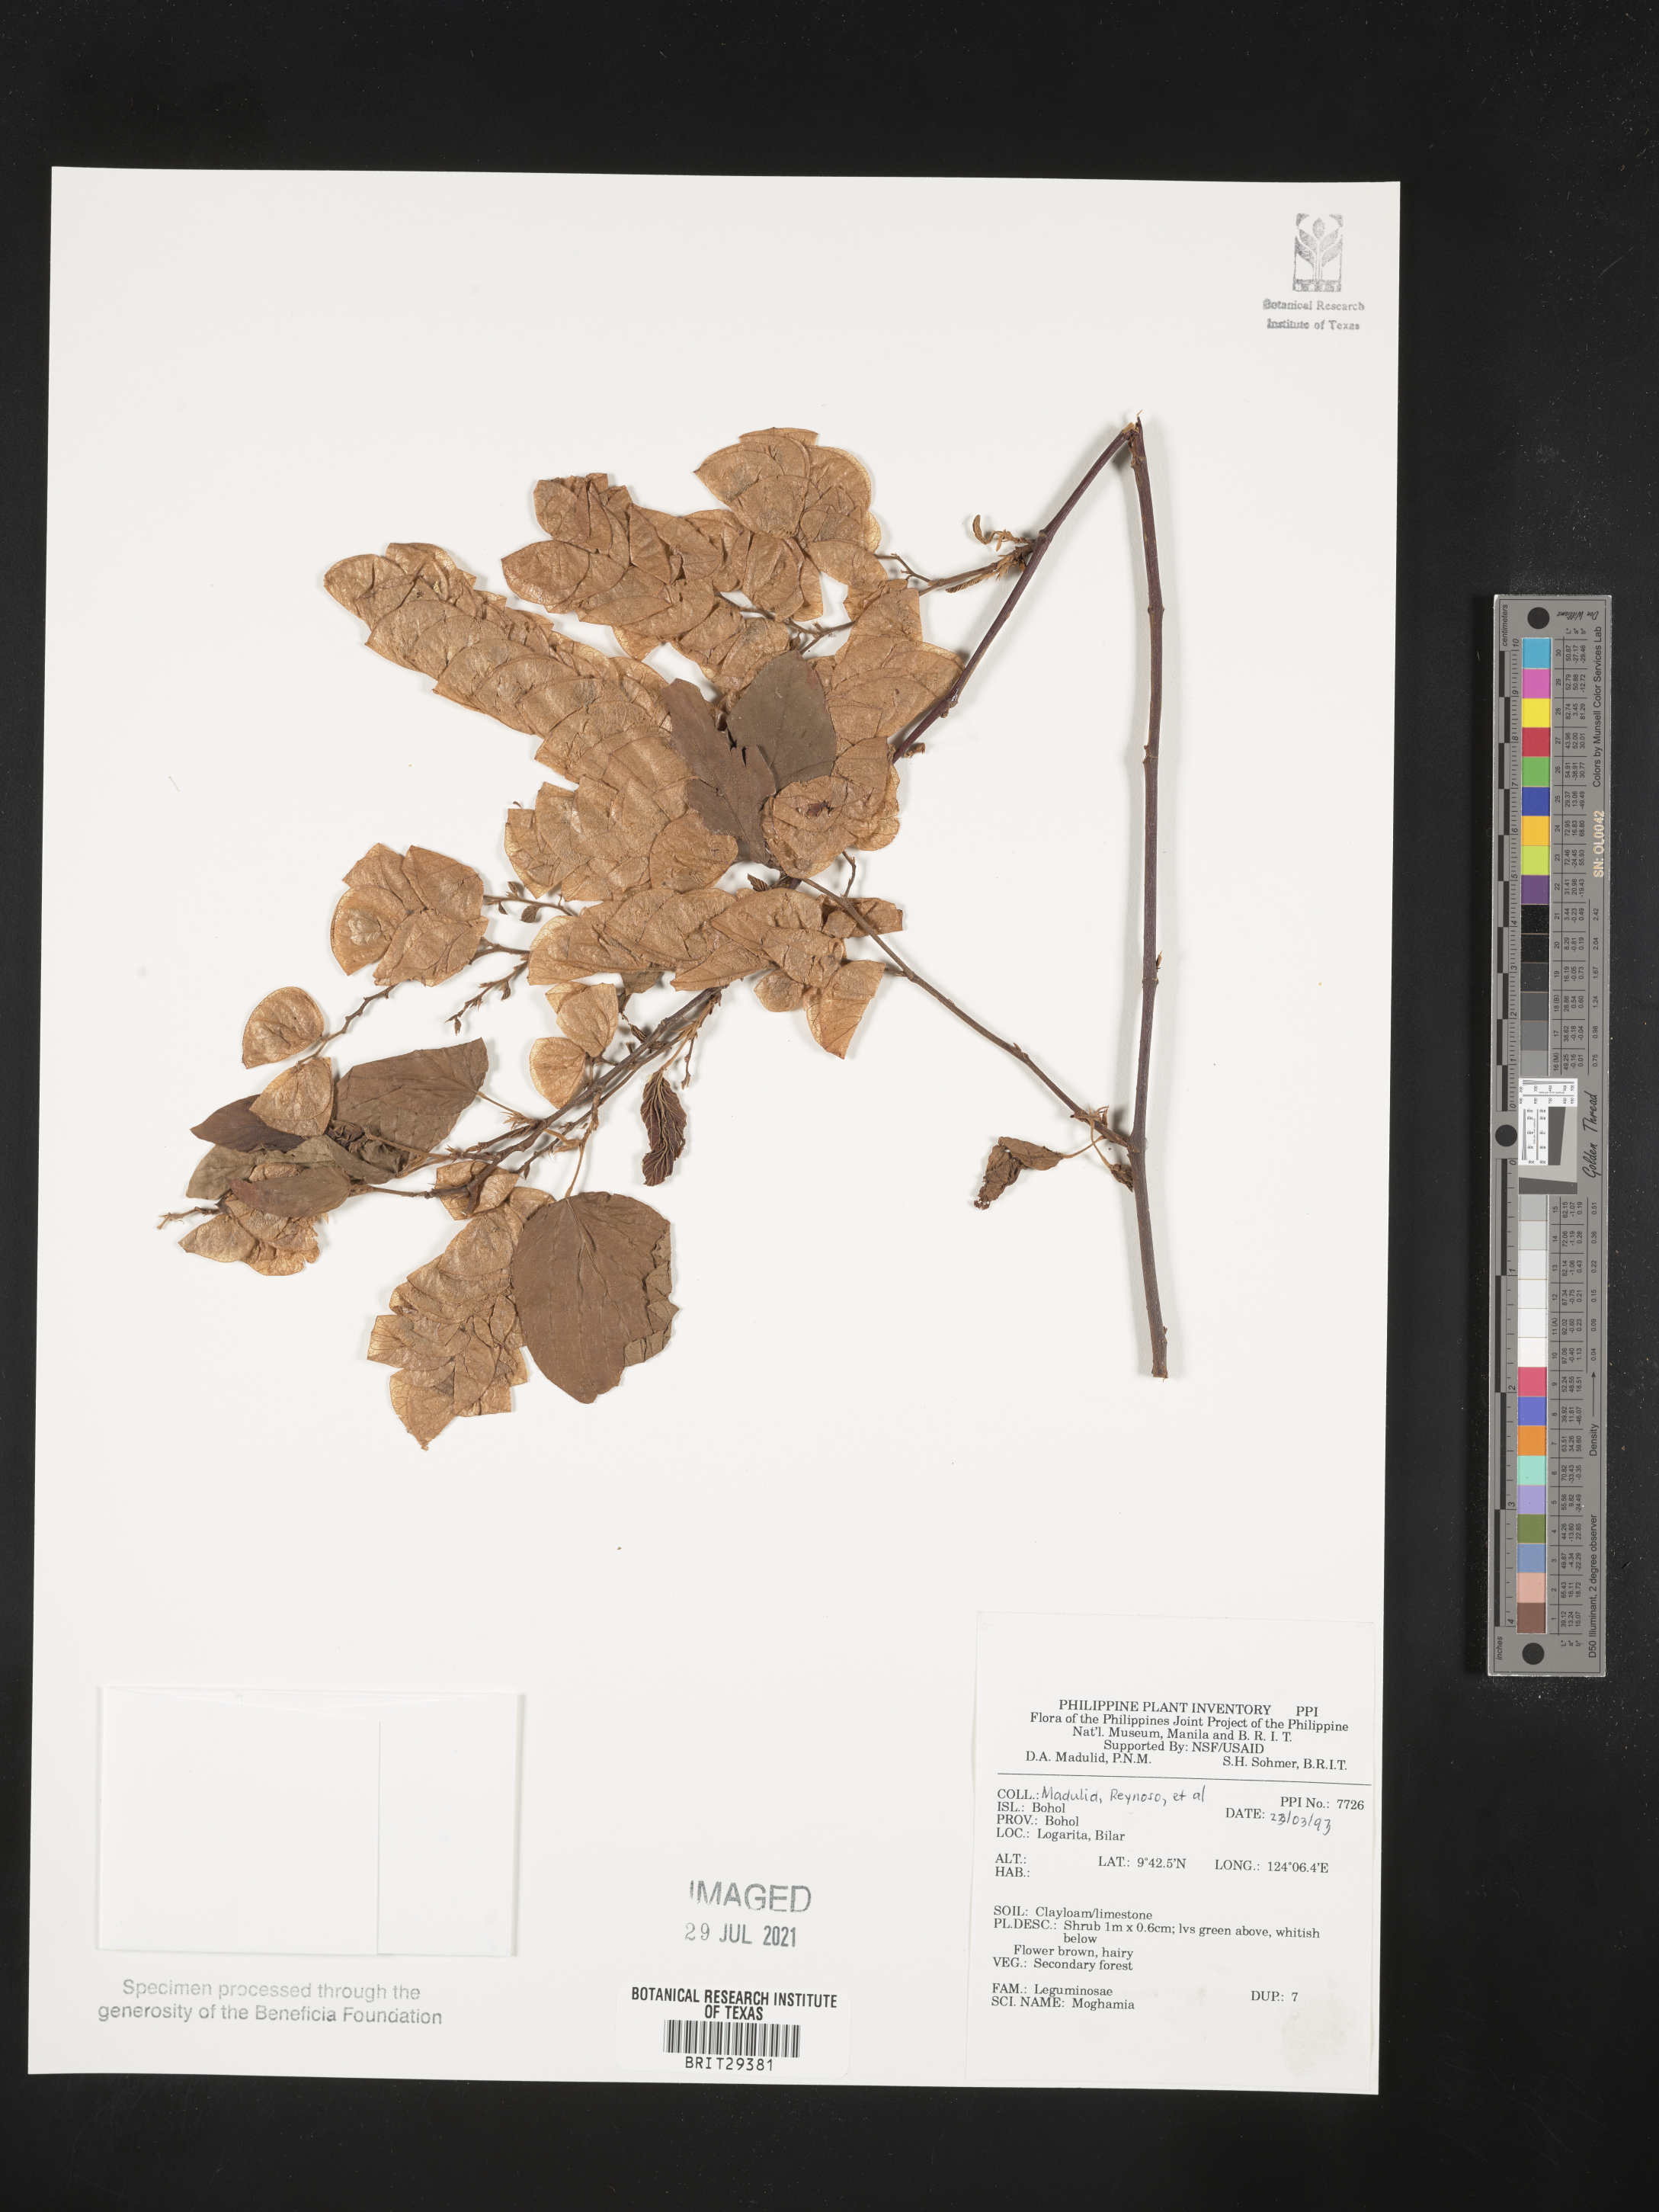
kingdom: Plantae
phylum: Tracheophyta
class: Magnoliopsida
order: Fabales
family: Fabaceae
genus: Flemingia
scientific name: Flemingia
